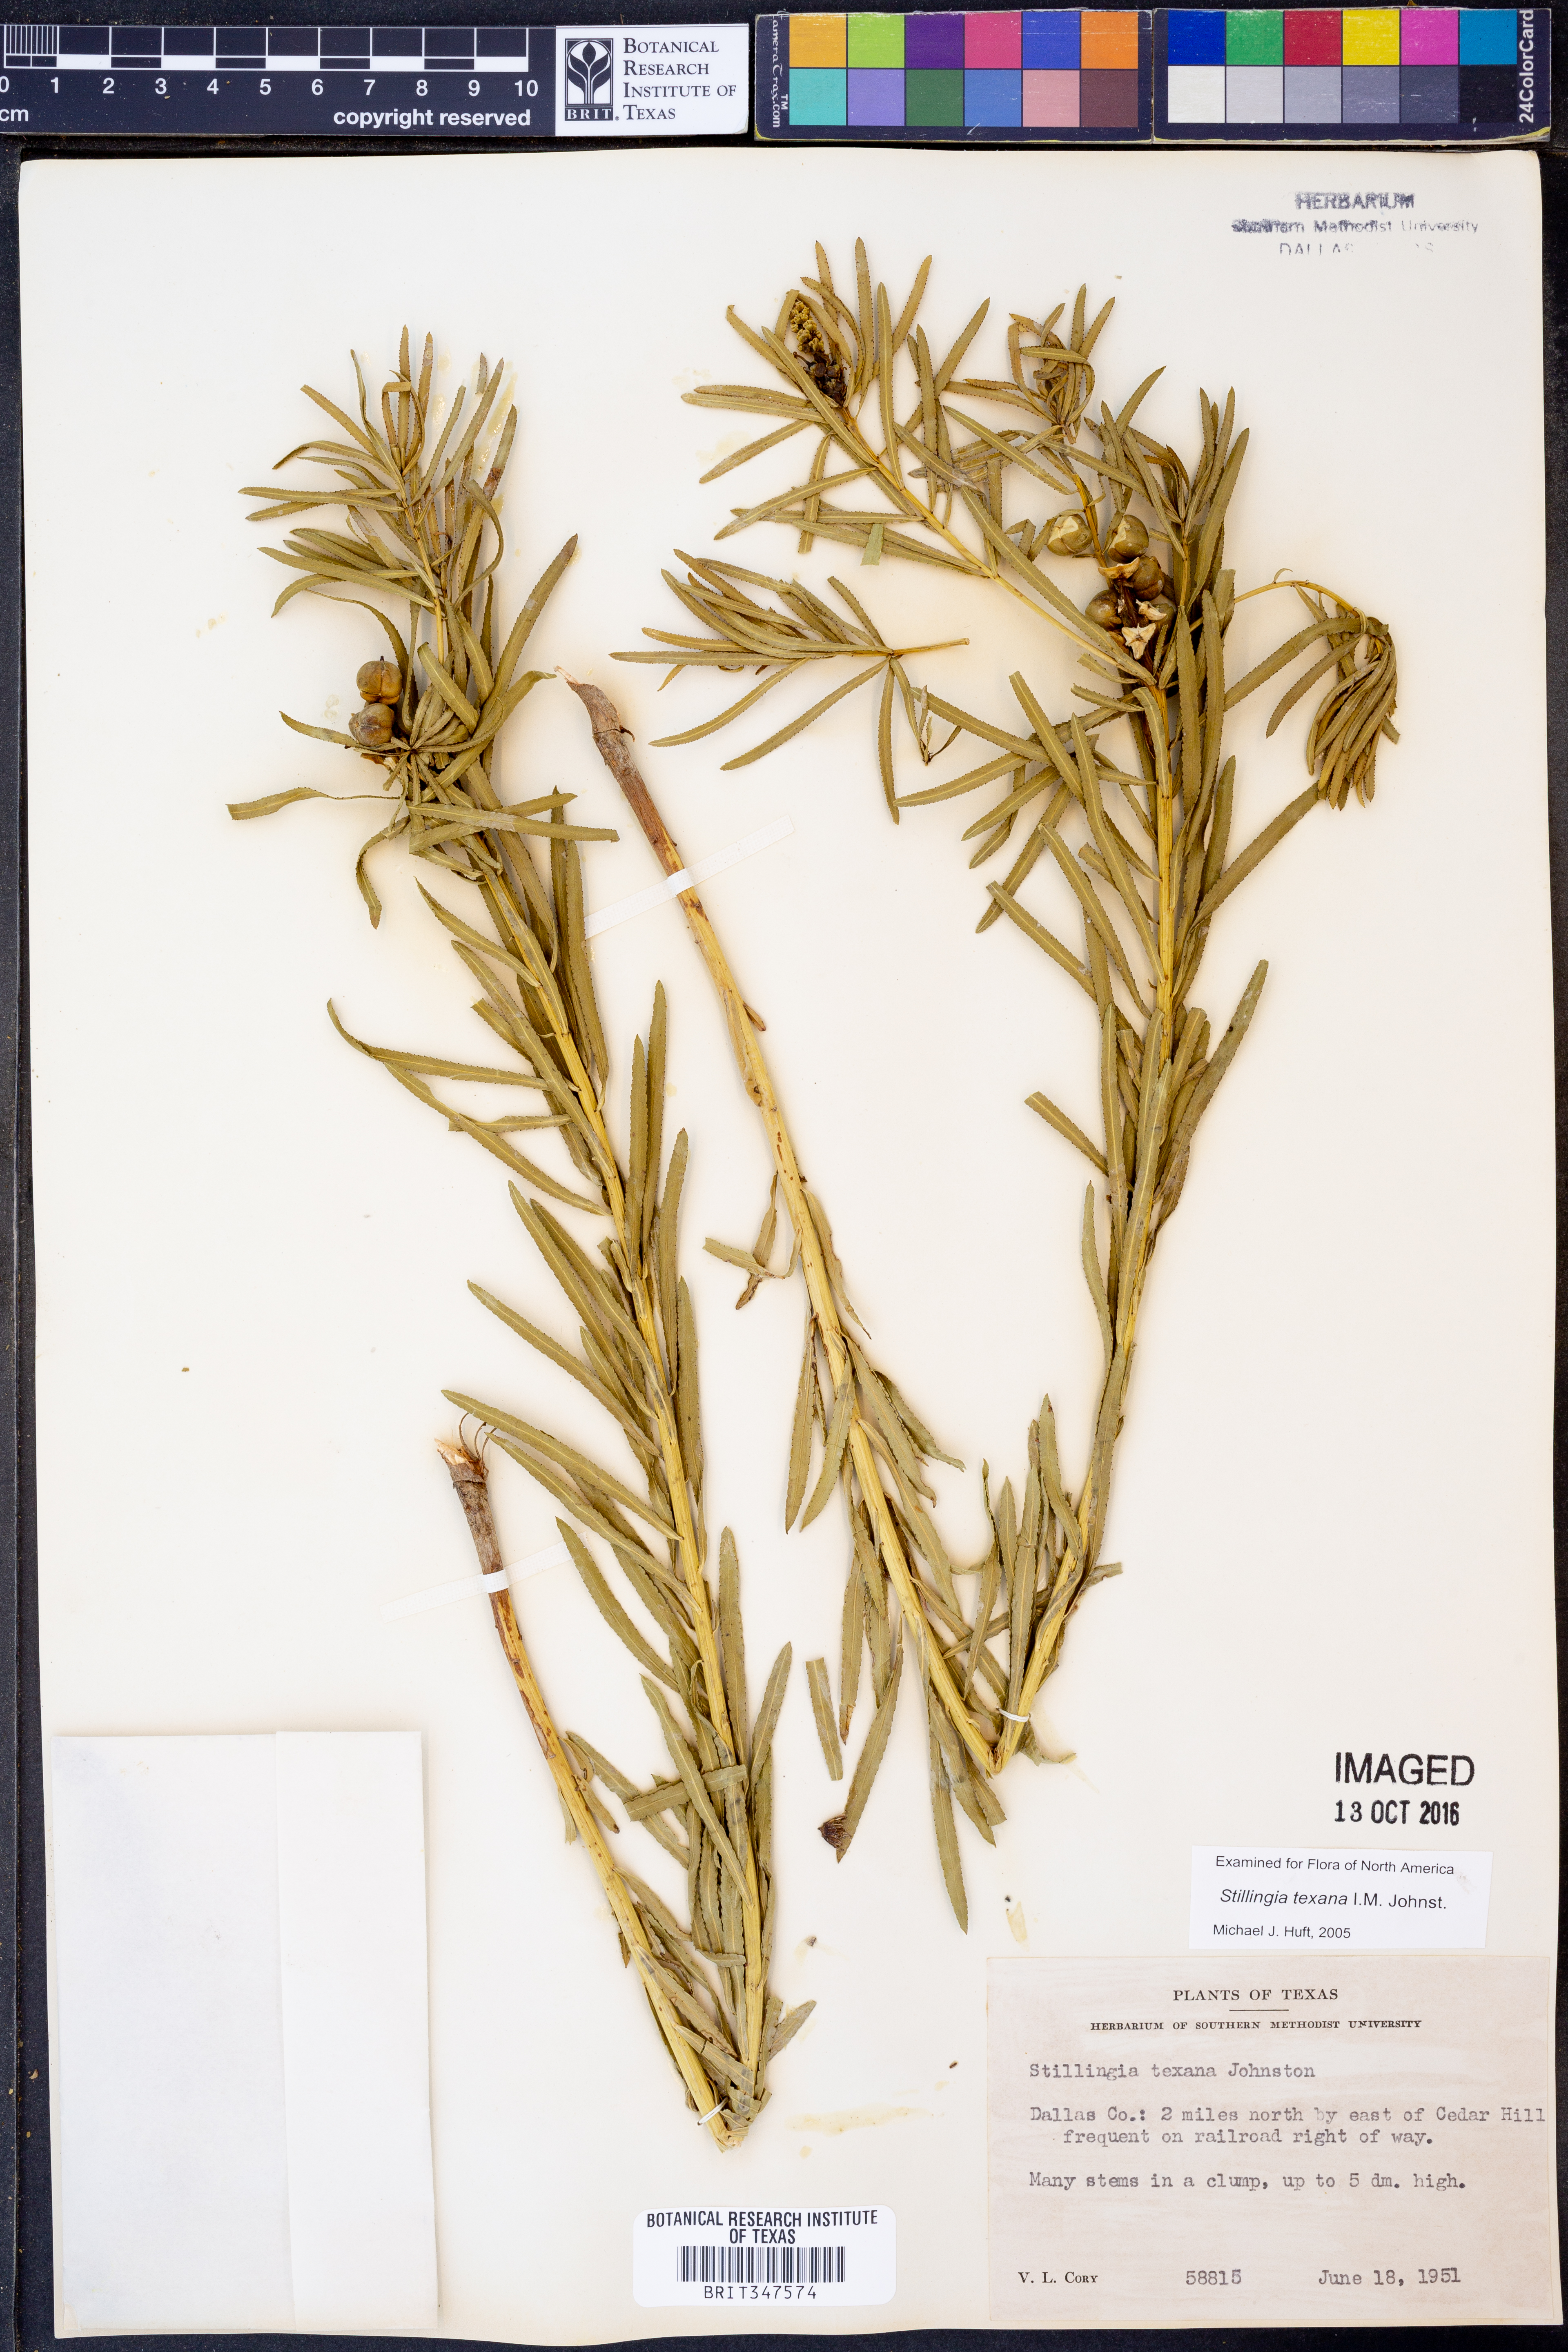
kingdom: Plantae
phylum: Tracheophyta
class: Magnoliopsida
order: Malpighiales
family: Euphorbiaceae
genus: Stillingia
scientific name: Stillingia texana
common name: Texas stillingia
